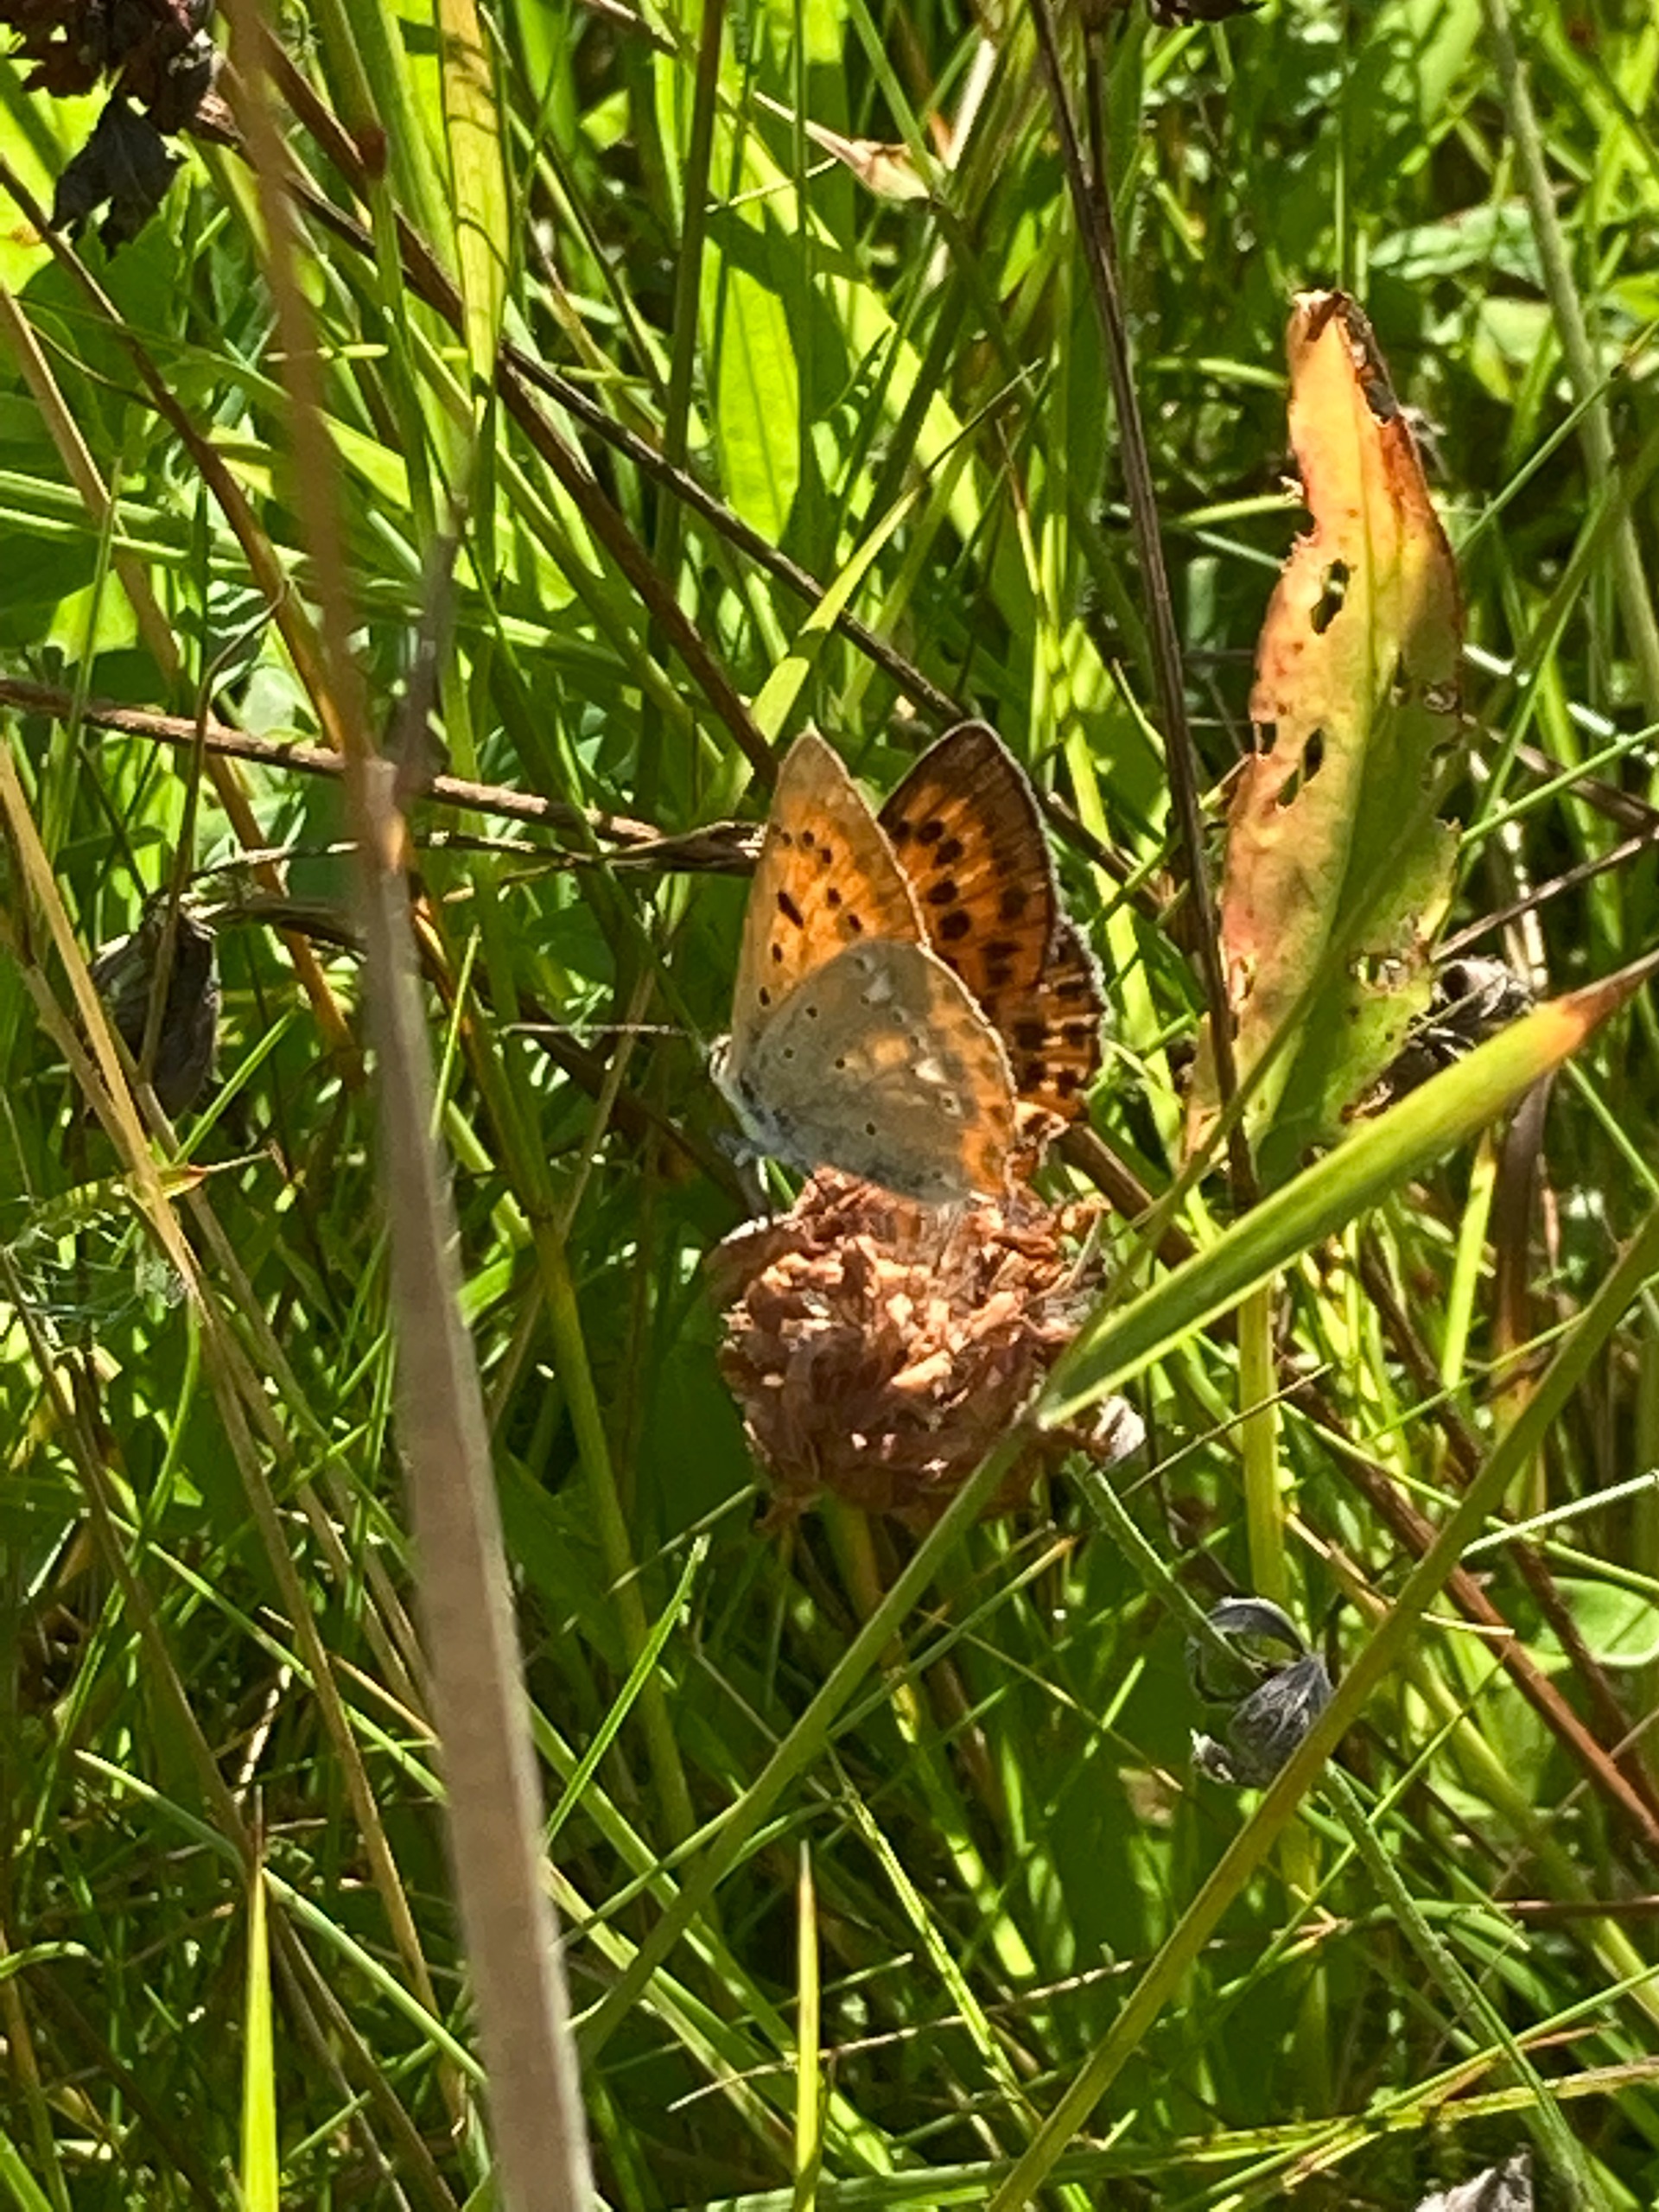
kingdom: Animalia
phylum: Arthropoda
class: Insecta
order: Lepidoptera
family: Lycaenidae
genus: Lycaena
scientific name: Lycaena virgaureae
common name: Dukatsommerfugl
